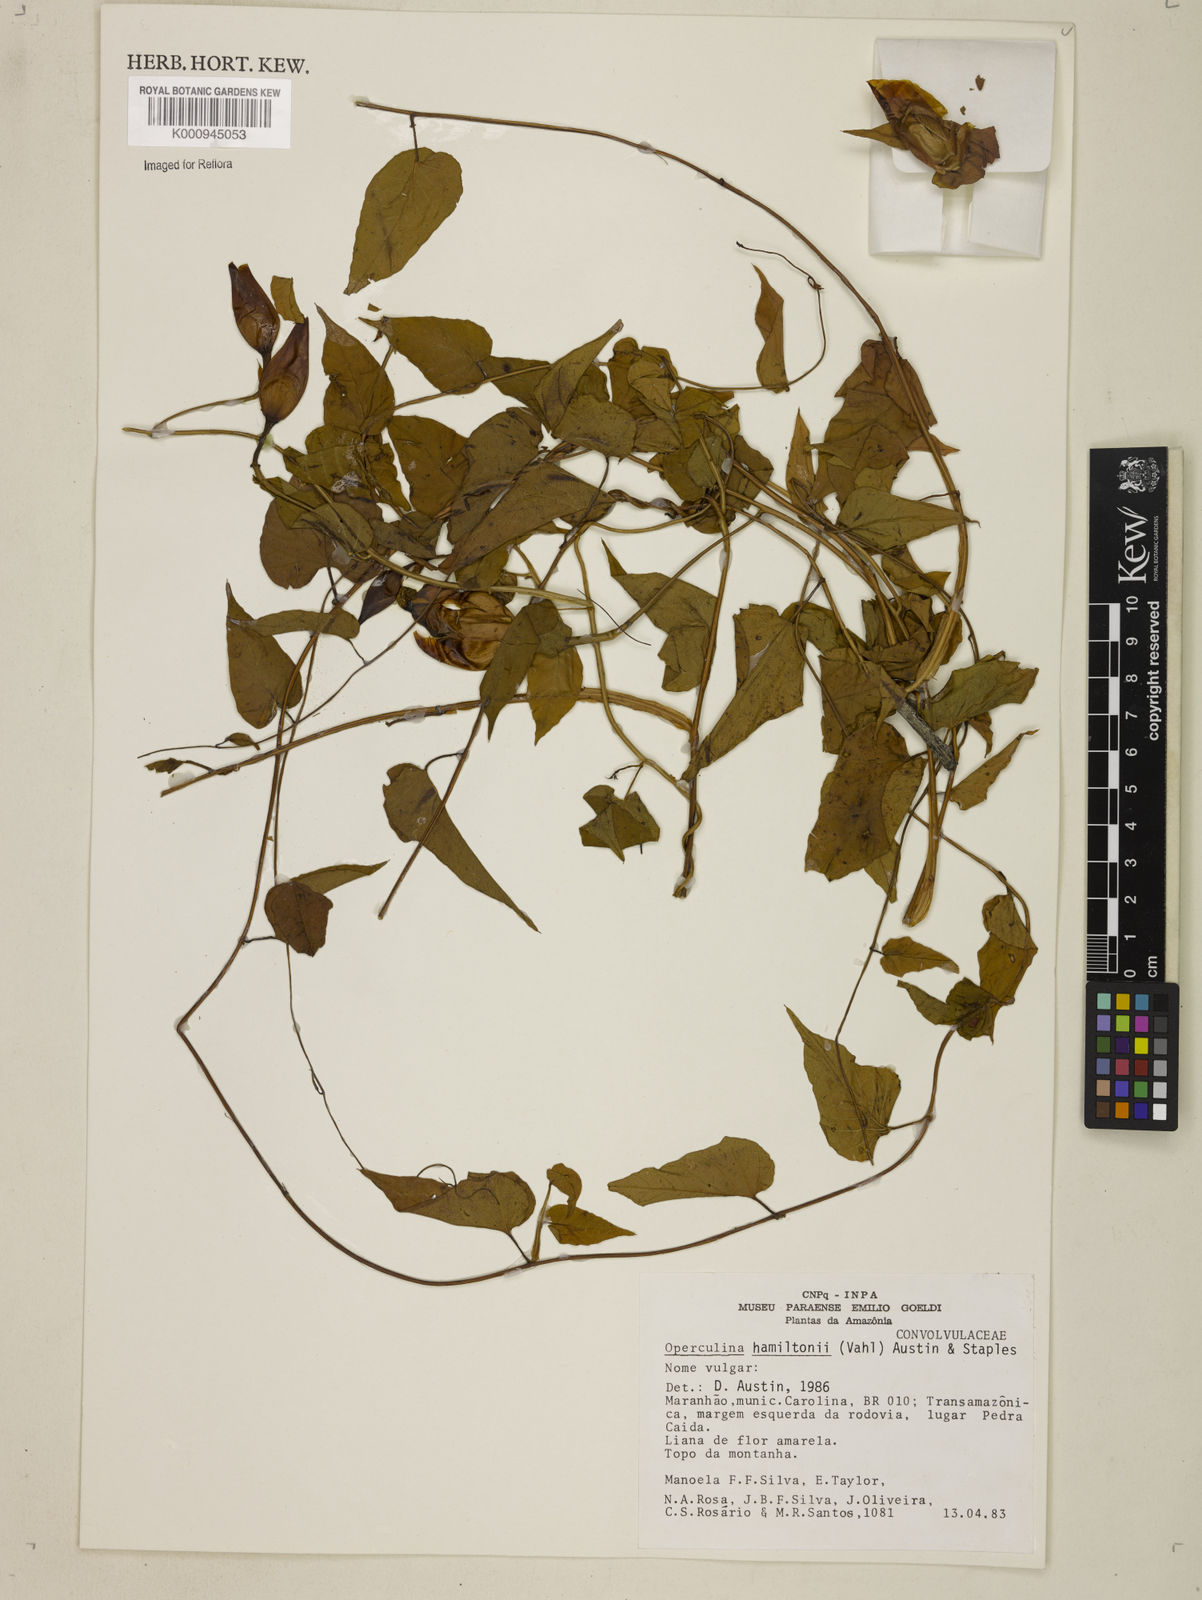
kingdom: Plantae
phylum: Tracheophyta
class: Magnoliopsida
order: Solanales
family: Convolvulaceae
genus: Operculina
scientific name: Operculina hamiltonii
